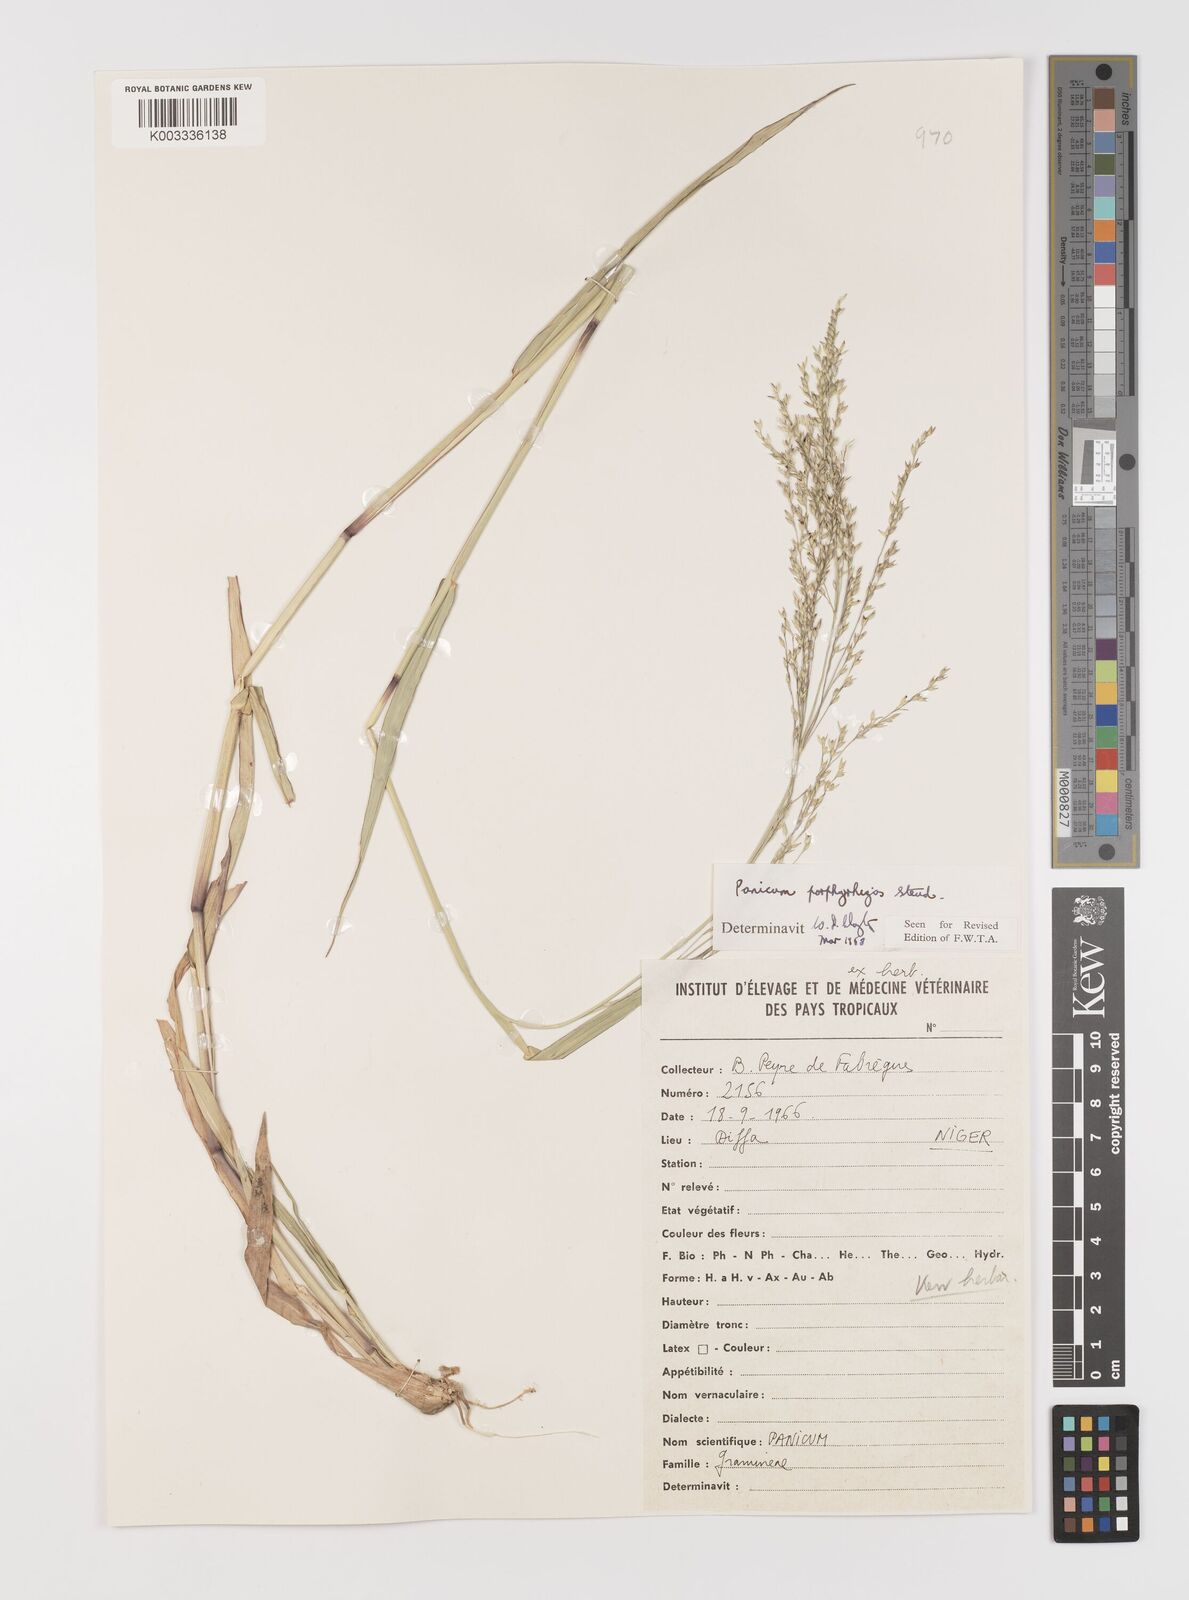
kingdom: Plantae
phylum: Tracheophyta
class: Liliopsida
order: Poales
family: Poaceae
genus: Panicum
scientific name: Panicum porphyrrhizos
